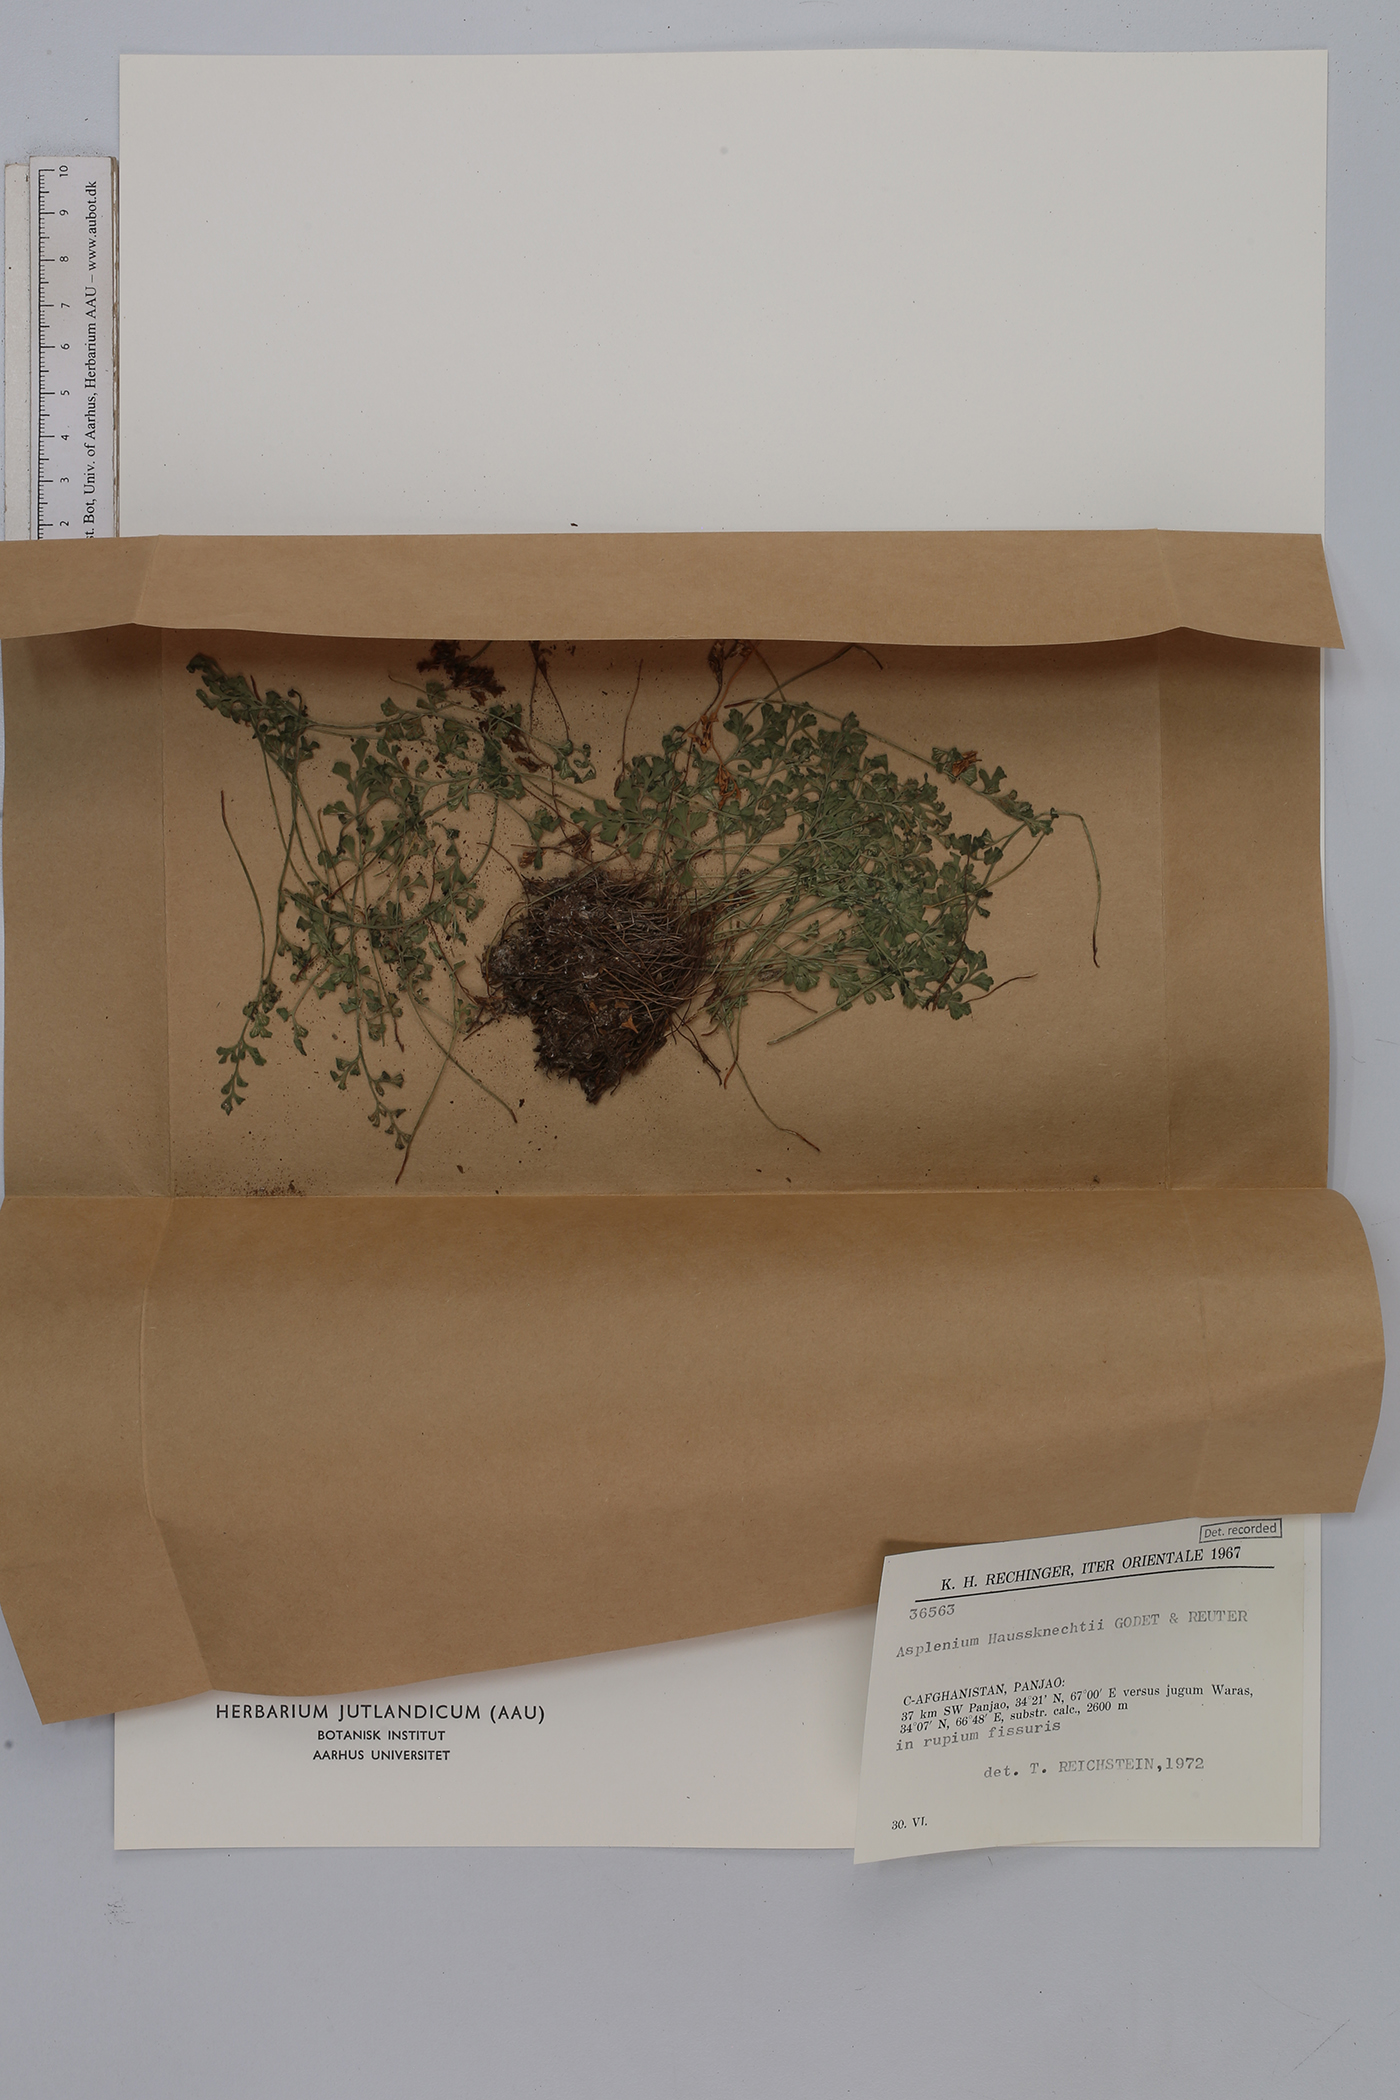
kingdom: Plantae
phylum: Tracheophyta
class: Polypodiopsida
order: Polypodiales
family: Aspleniaceae
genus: Asplenium
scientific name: Asplenium lepidum
